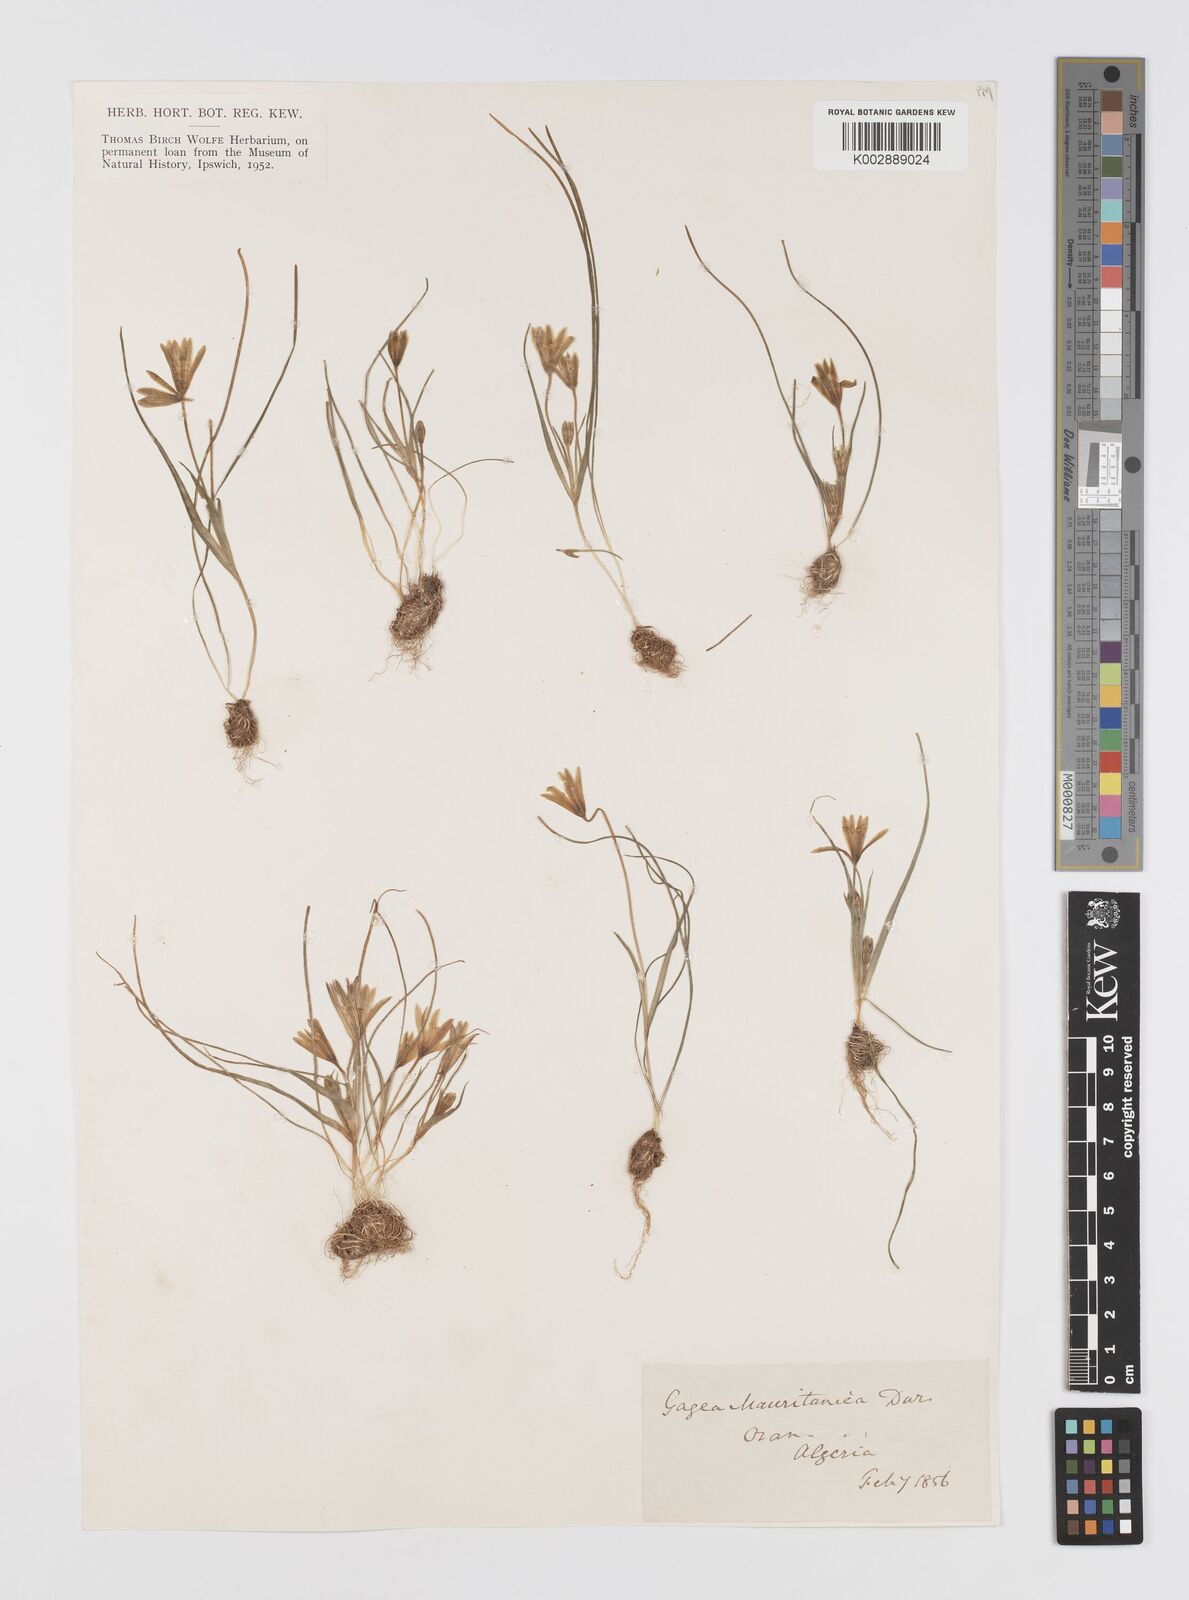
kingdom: Plantae
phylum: Tracheophyta
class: Liliopsida
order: Liliales
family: Liliaceae
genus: Gagea
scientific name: Gagea mauritanica
